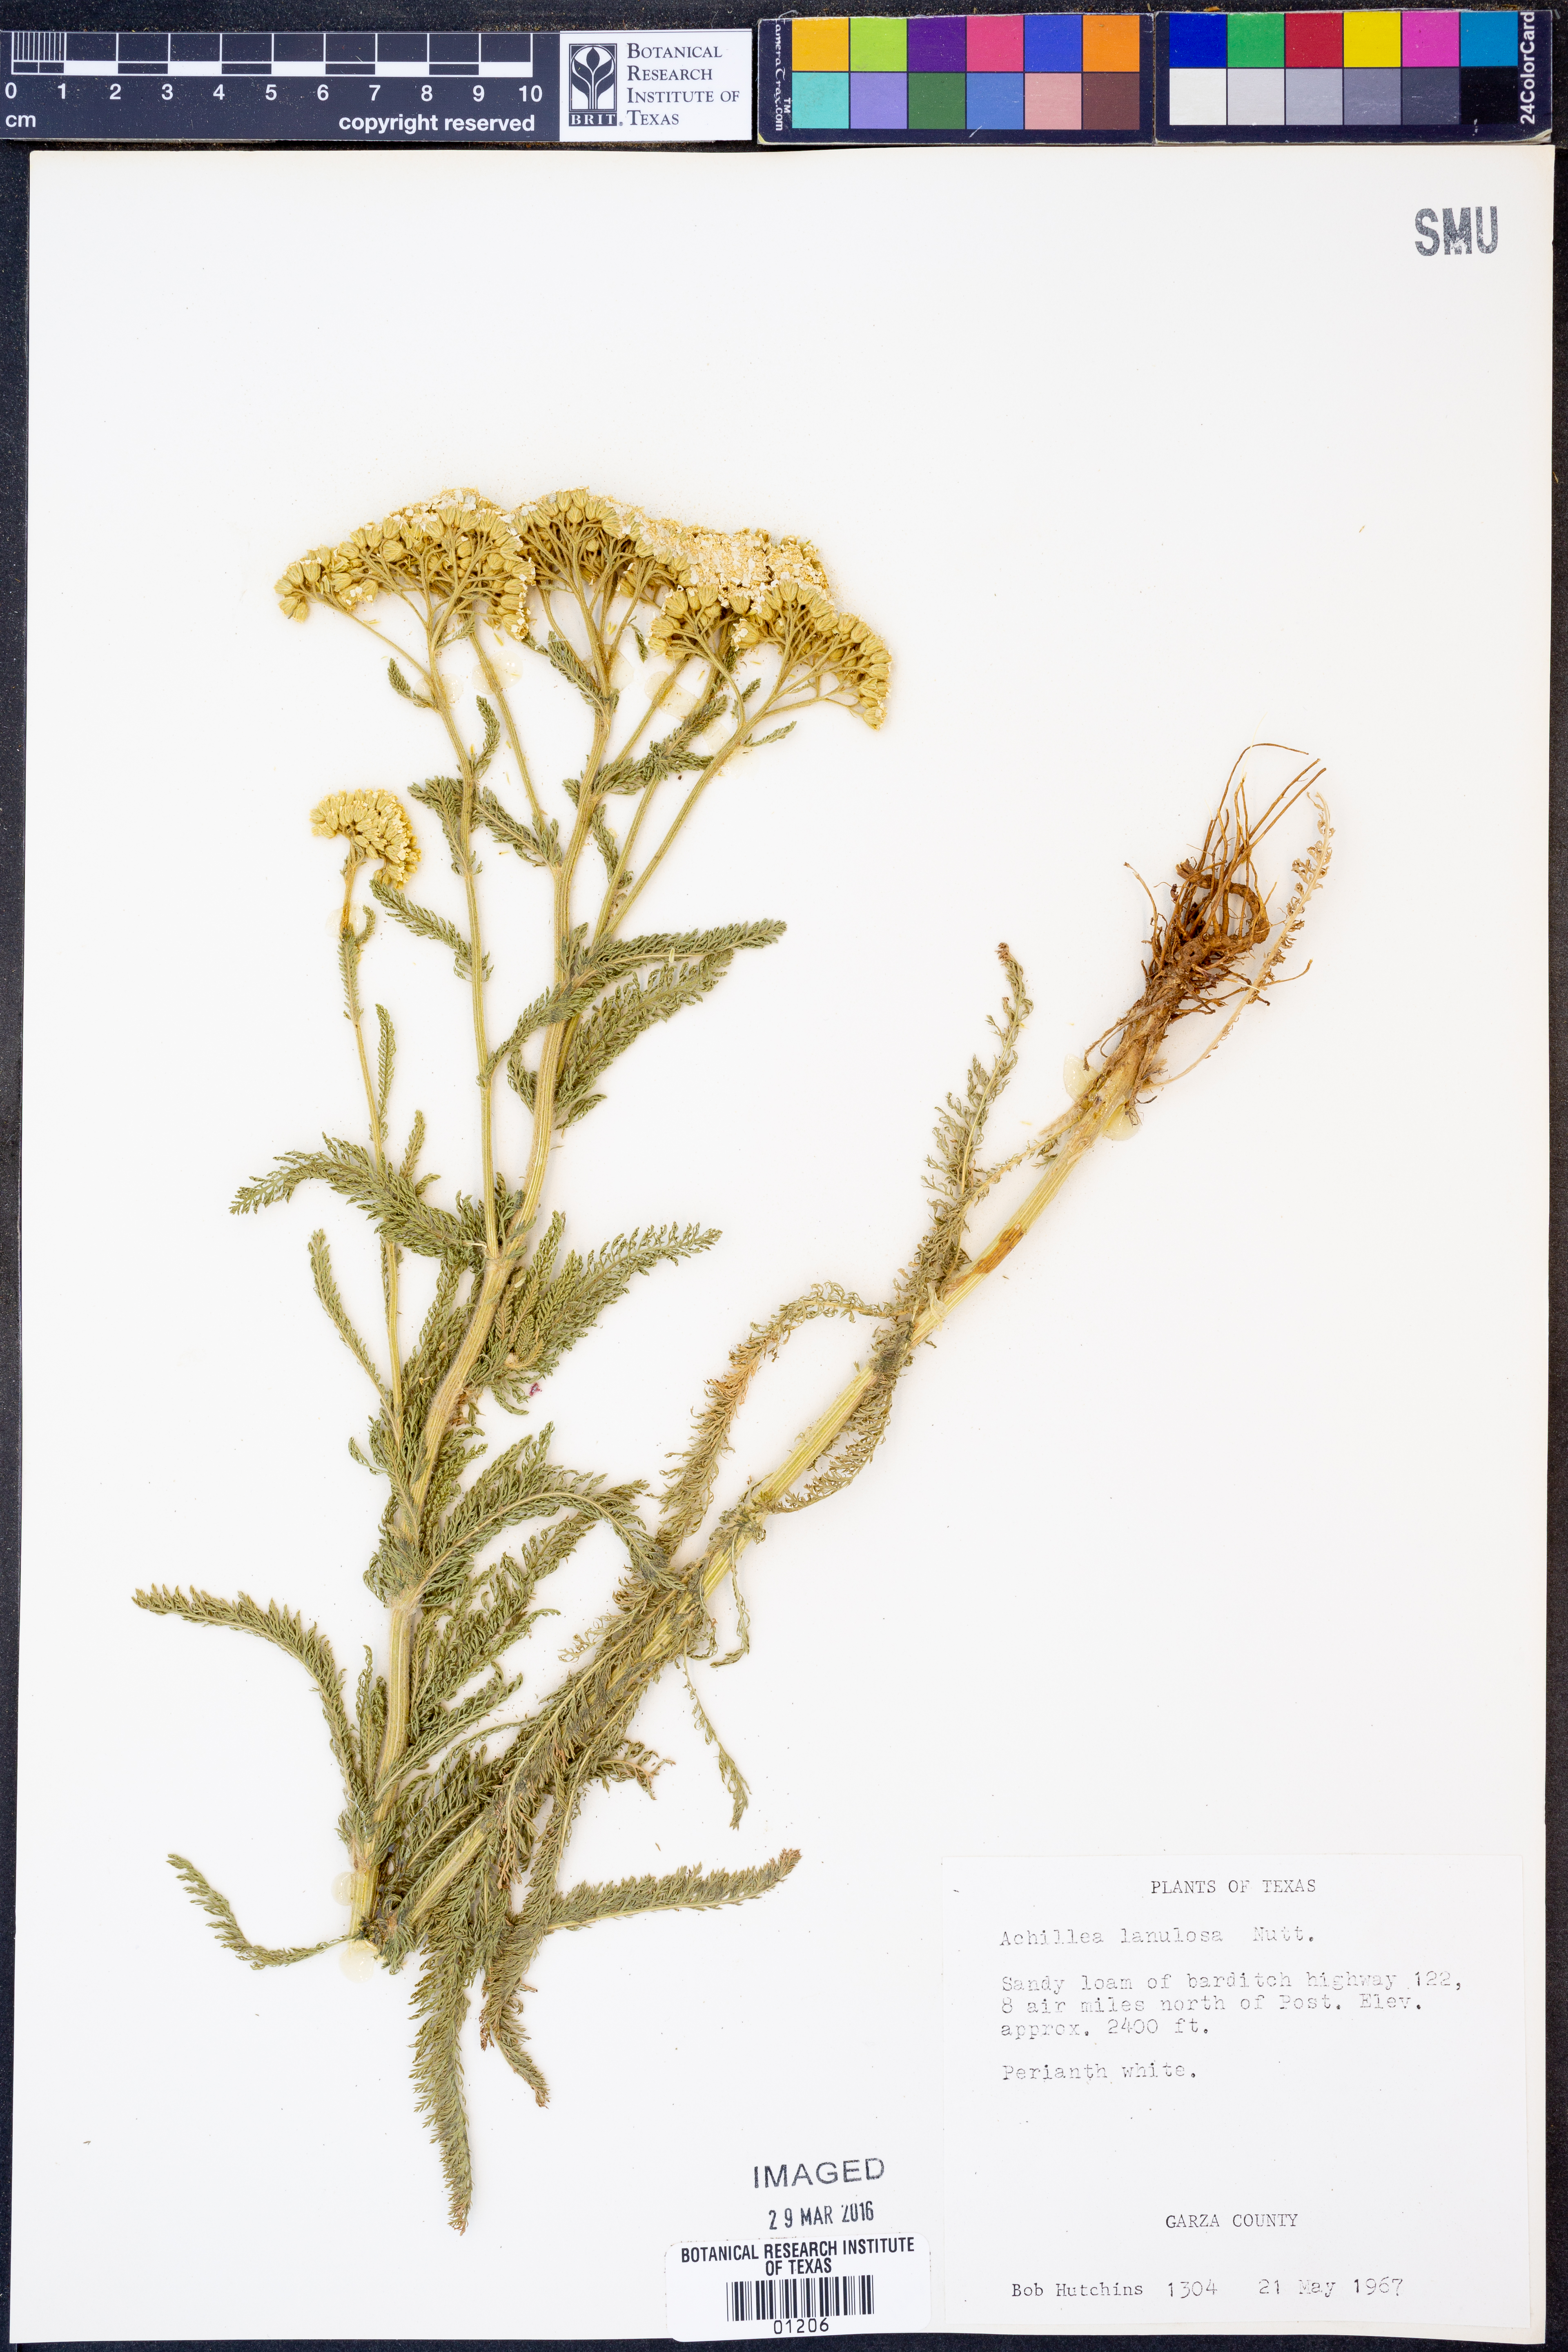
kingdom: Plantae
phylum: Tracheophyta
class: Magnoliopsida
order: Asterales
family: Asteraceae
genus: Achillea
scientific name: Achillea millefolium
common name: Yarrow
